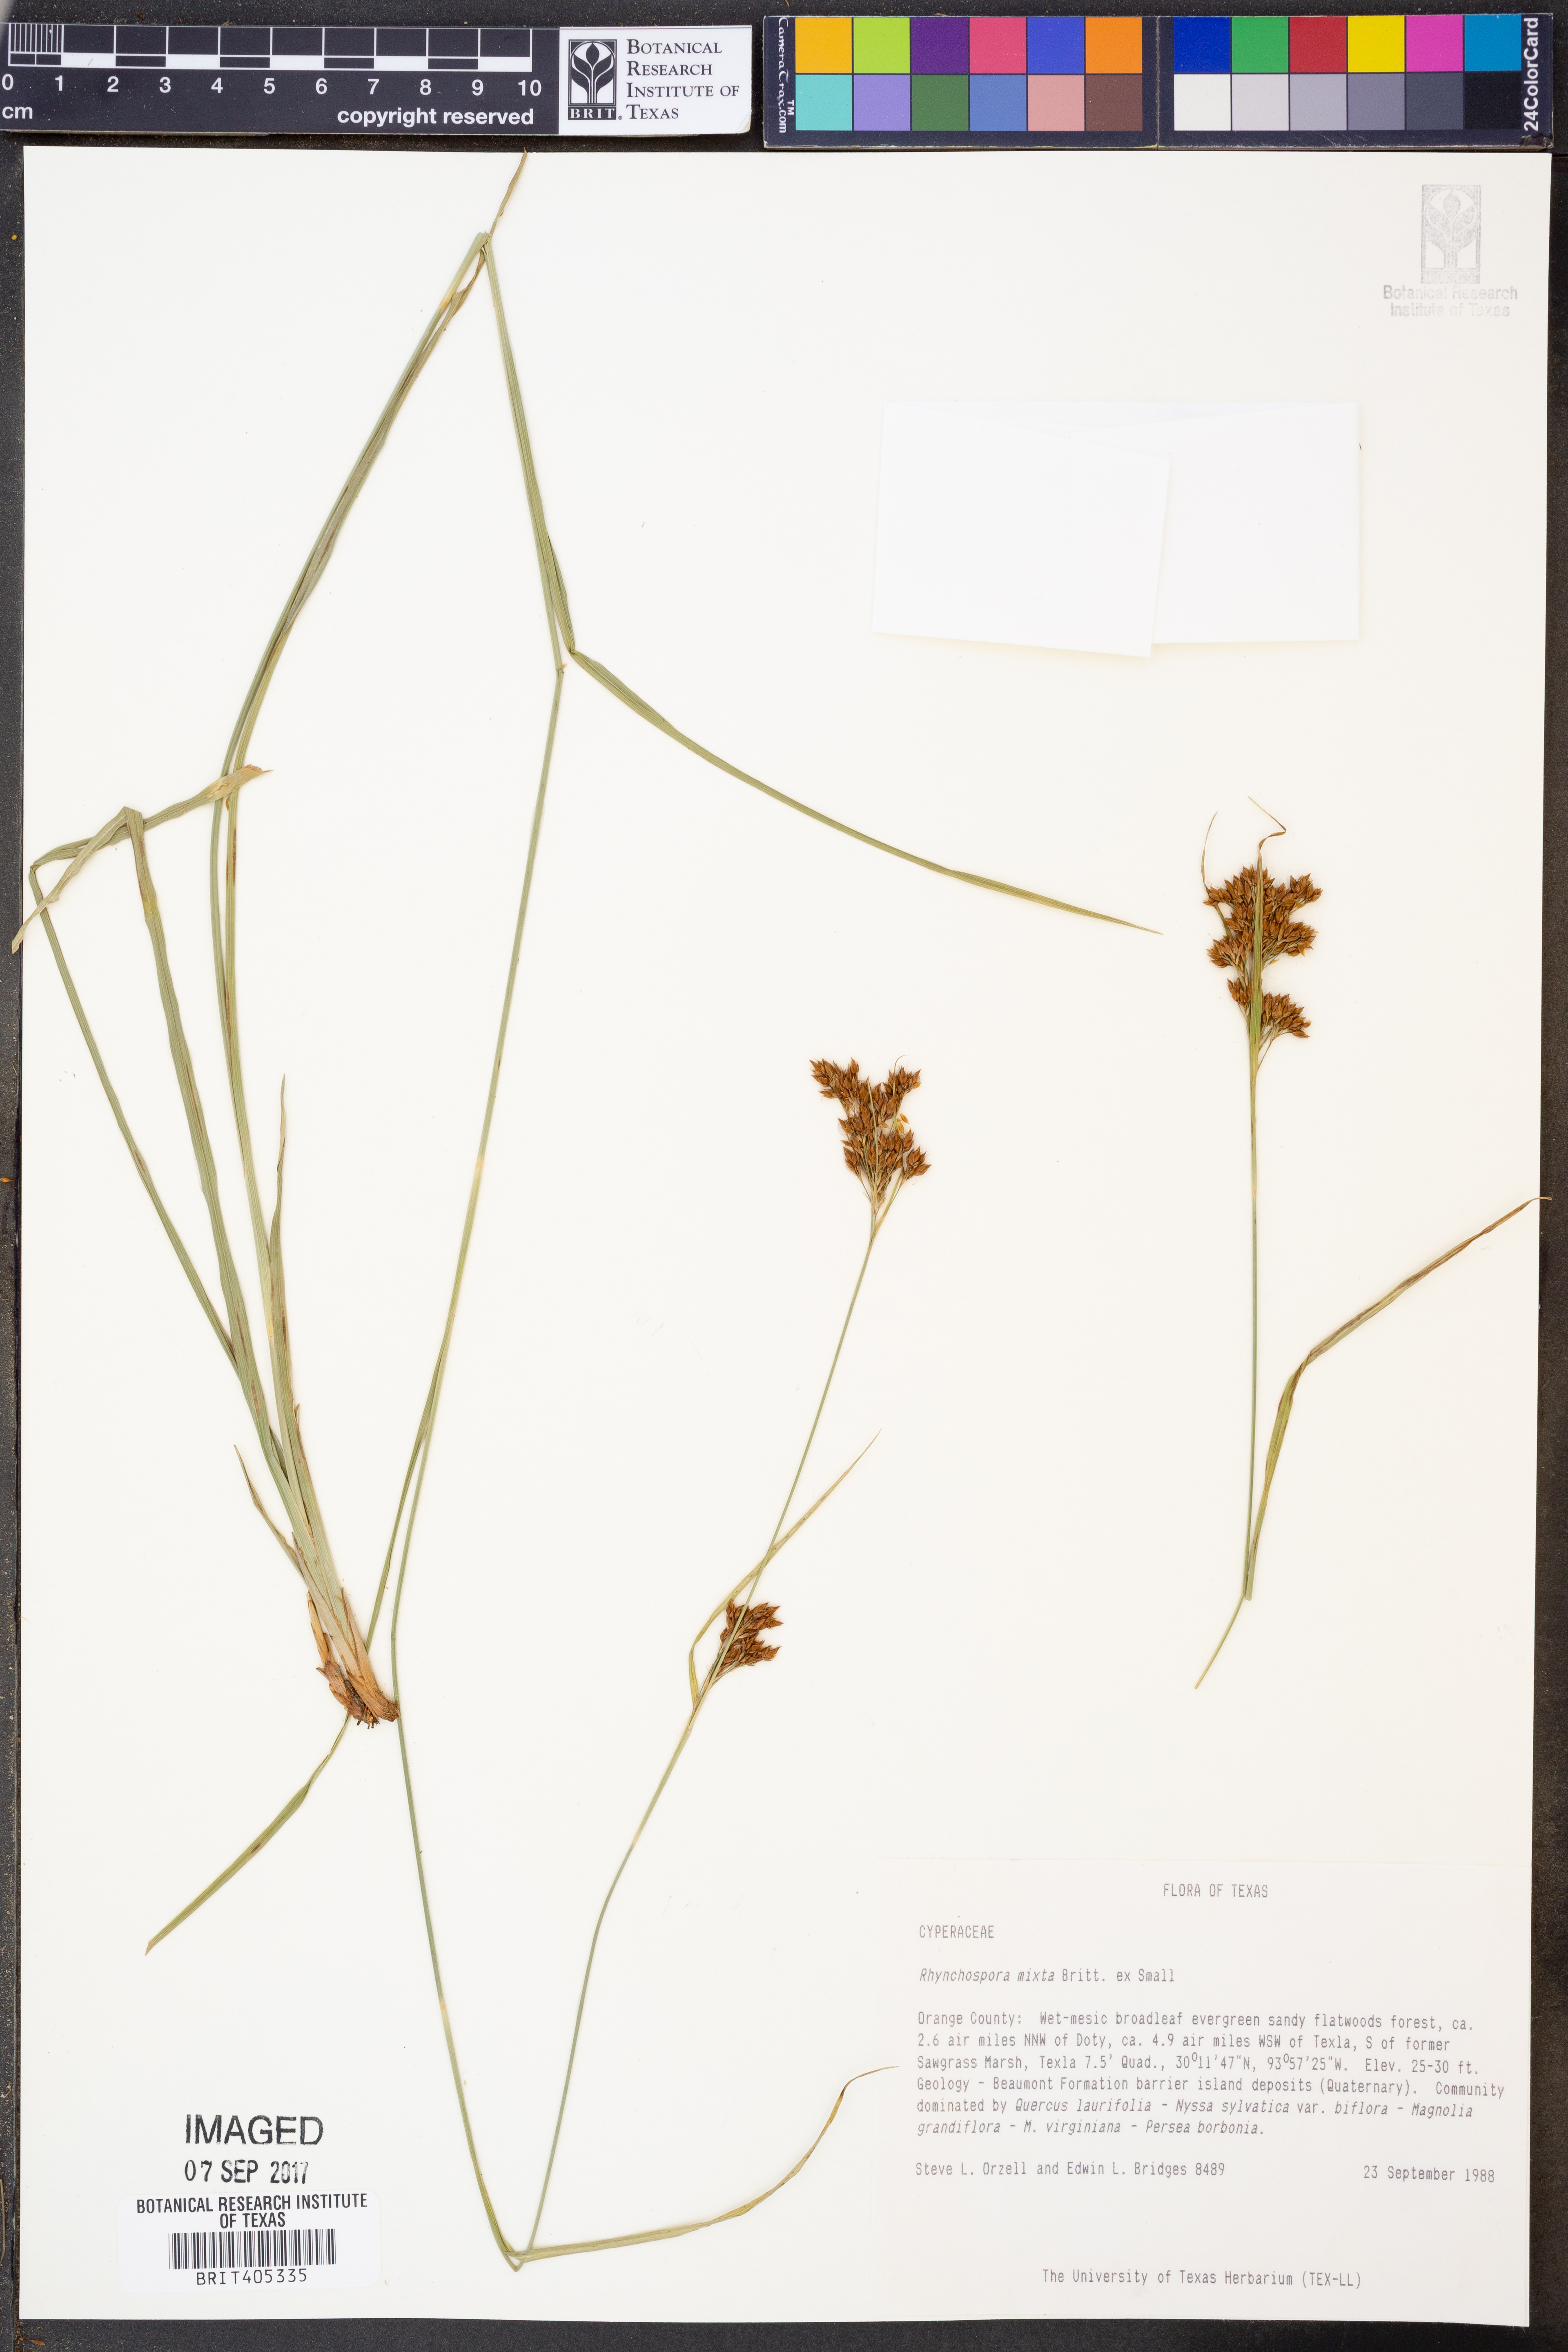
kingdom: Plantae
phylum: Tracheophyta
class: Liliopsida
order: Poales
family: Cyperaceae
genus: Rhynchospora
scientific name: Rhynchospora mixta
